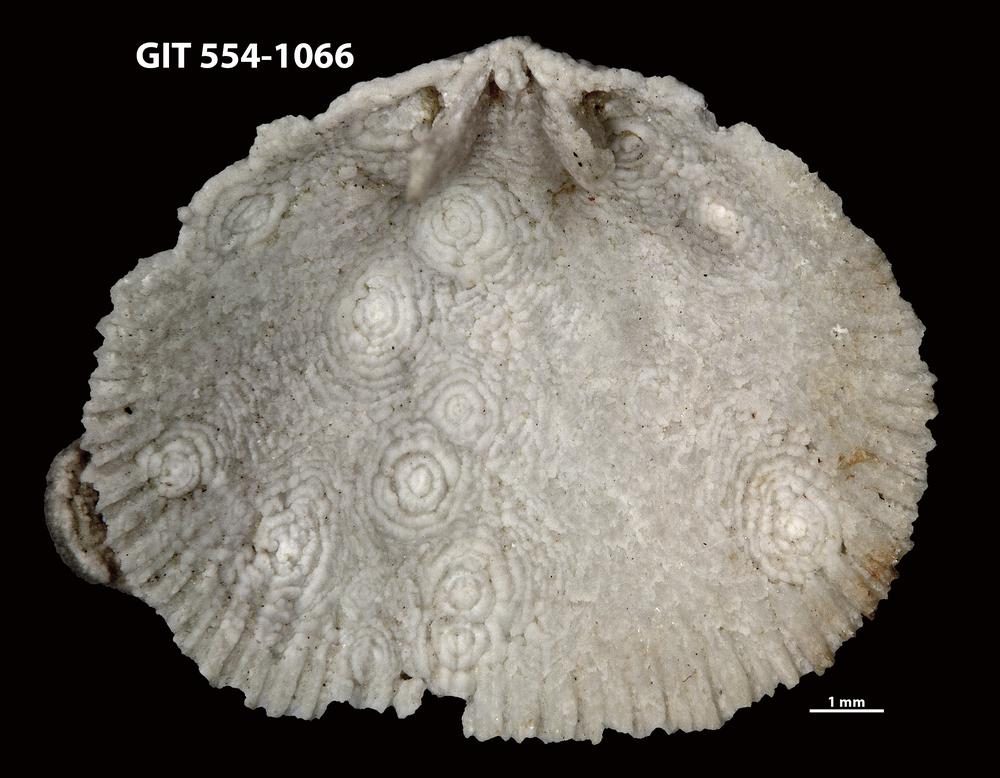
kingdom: Animalia
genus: Mendacella
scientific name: Mendacella bleikeriensis
